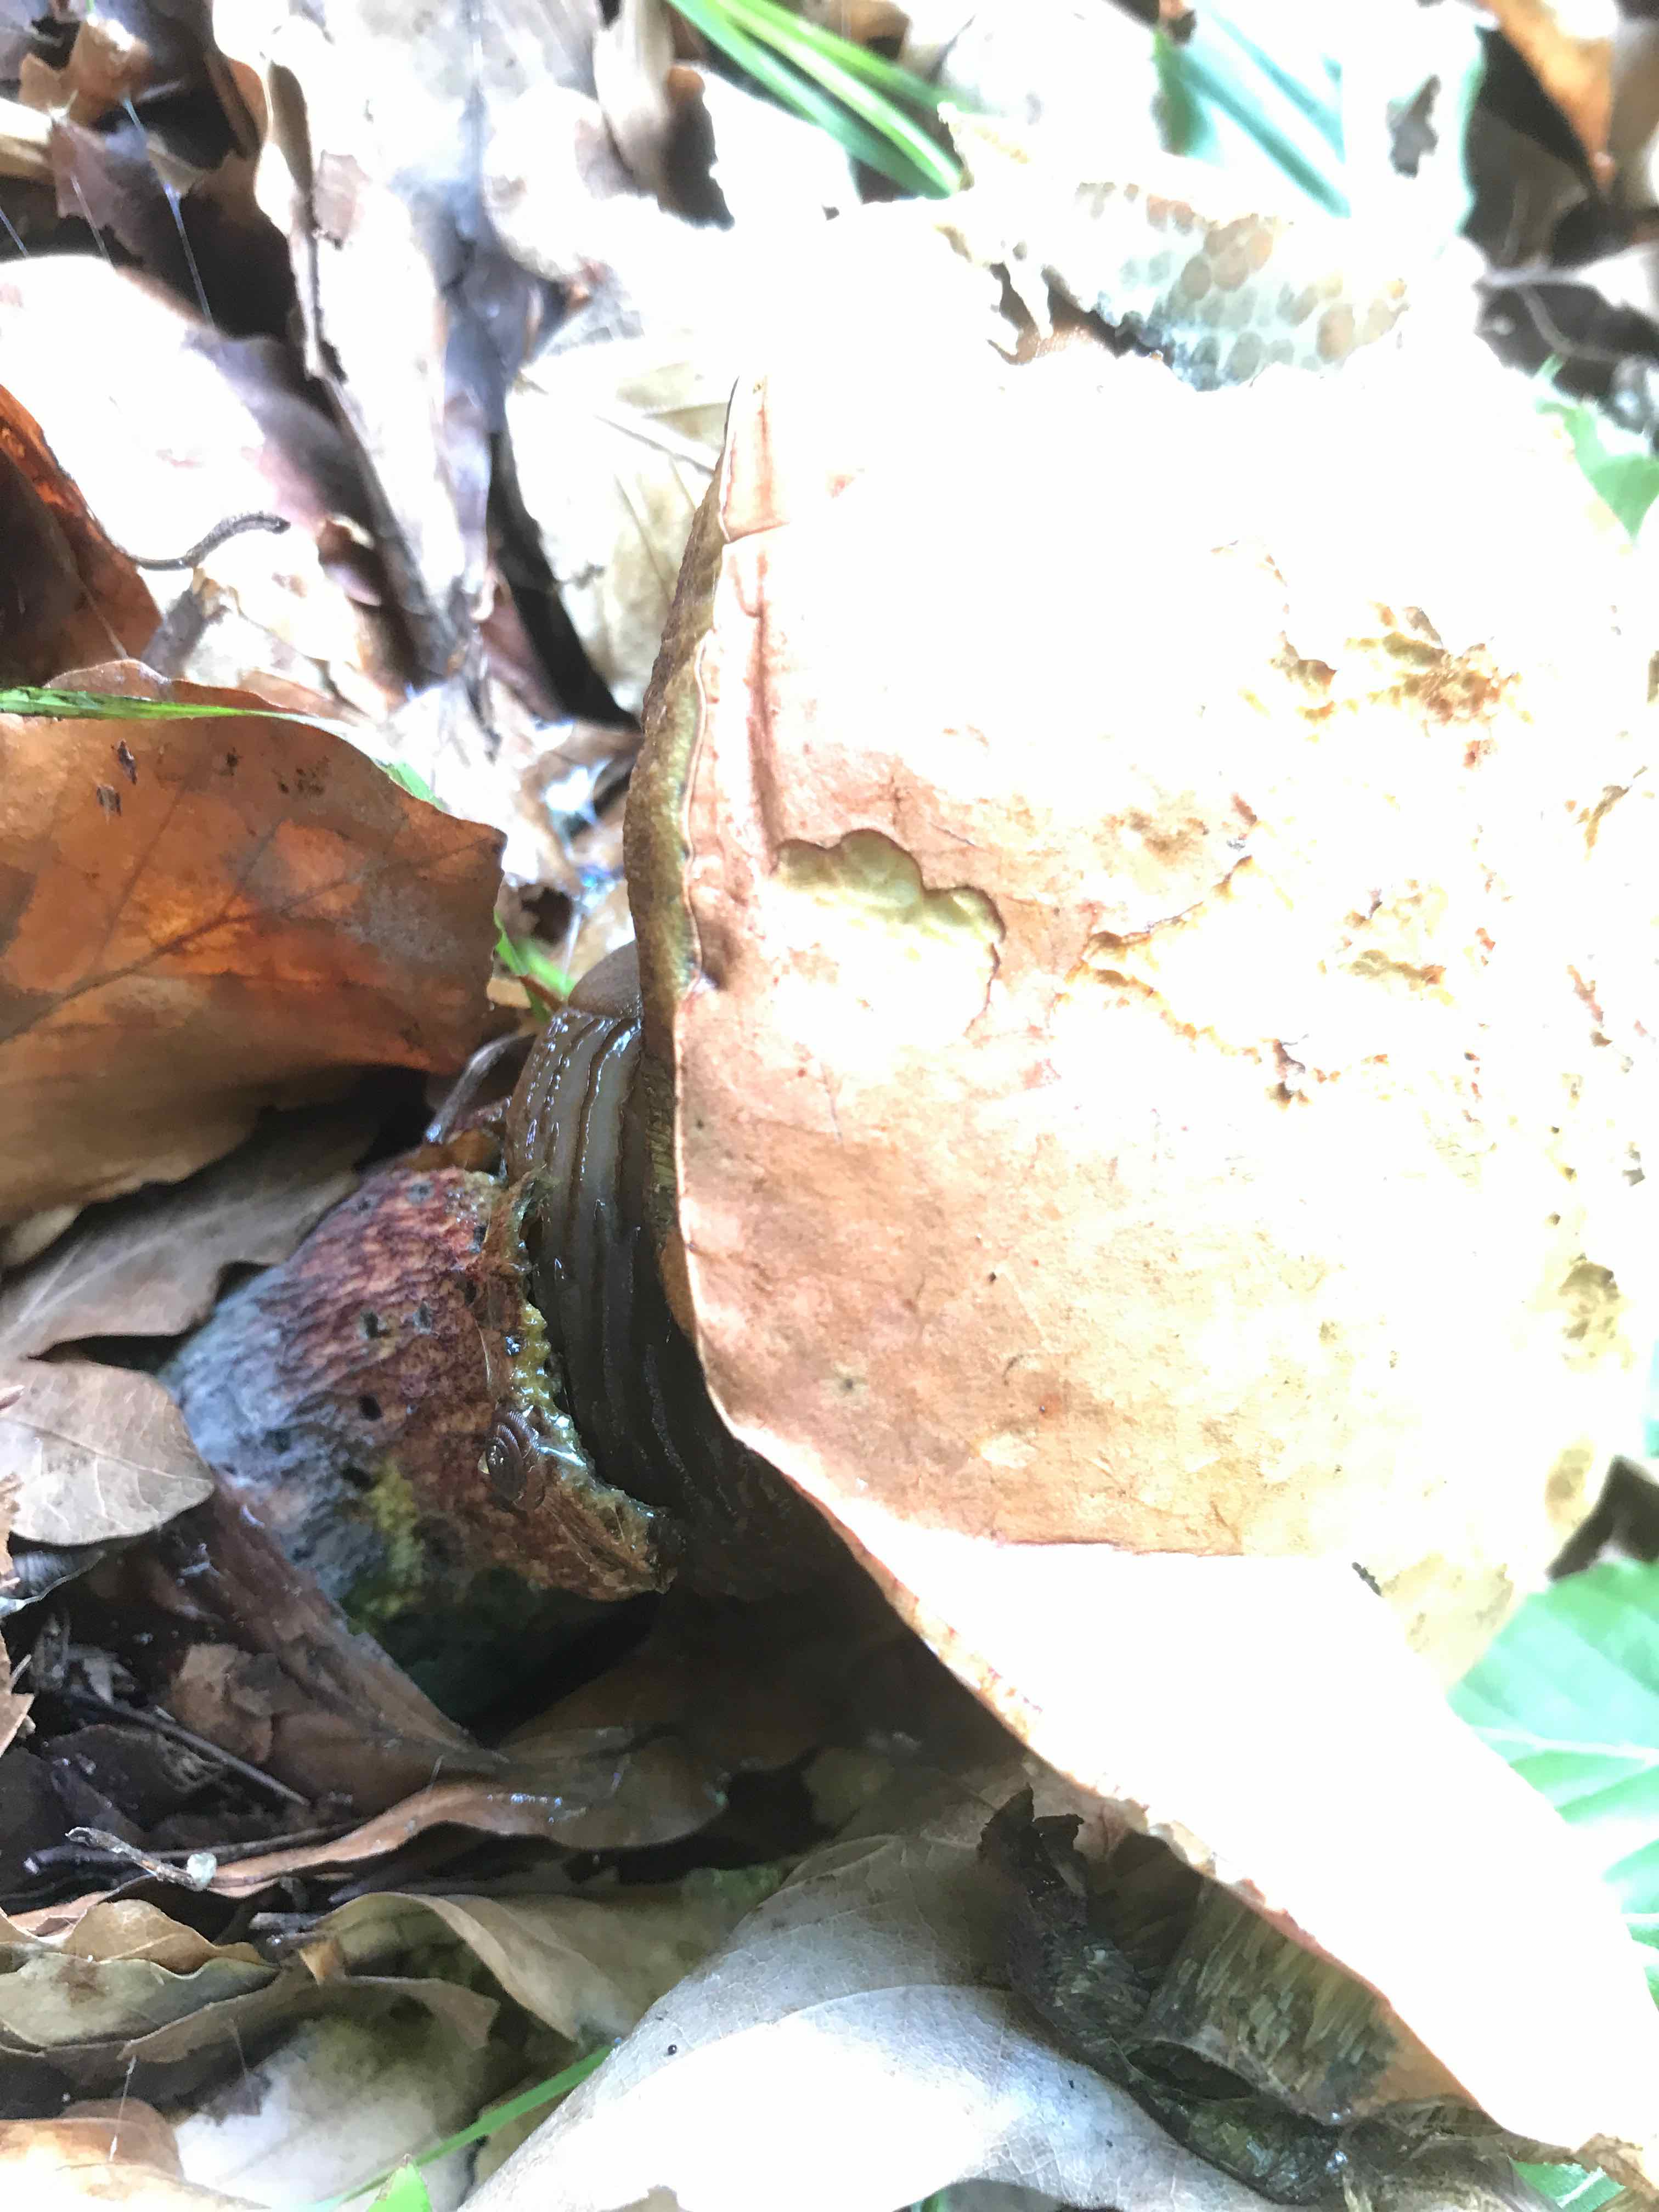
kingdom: Fungi
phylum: Basidiomycota
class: Agaricomycetes
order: Boletales
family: Boletaceae
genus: Suillellus
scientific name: Suillellus luridus
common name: netstokket indigorørhat
